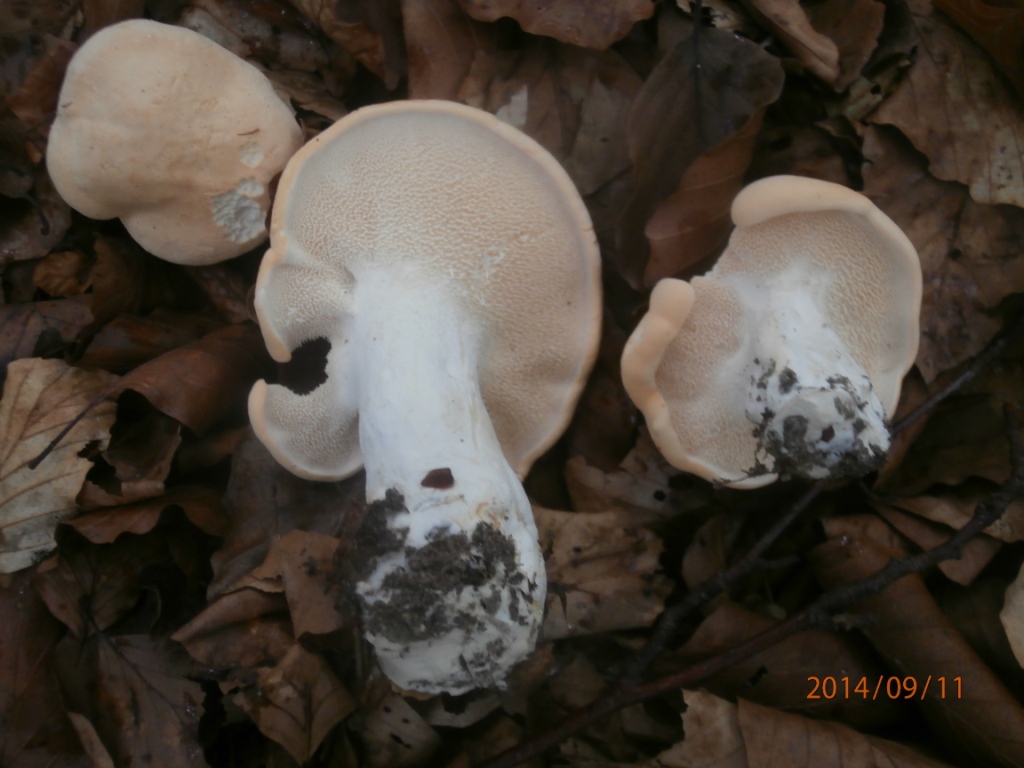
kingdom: Fungi
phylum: Basidiomycota
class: Agaricomycetes
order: Cantharellales
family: Hydnaceae
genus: Hydnum
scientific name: Hydnum repandum
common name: almindelig pigsvamp
